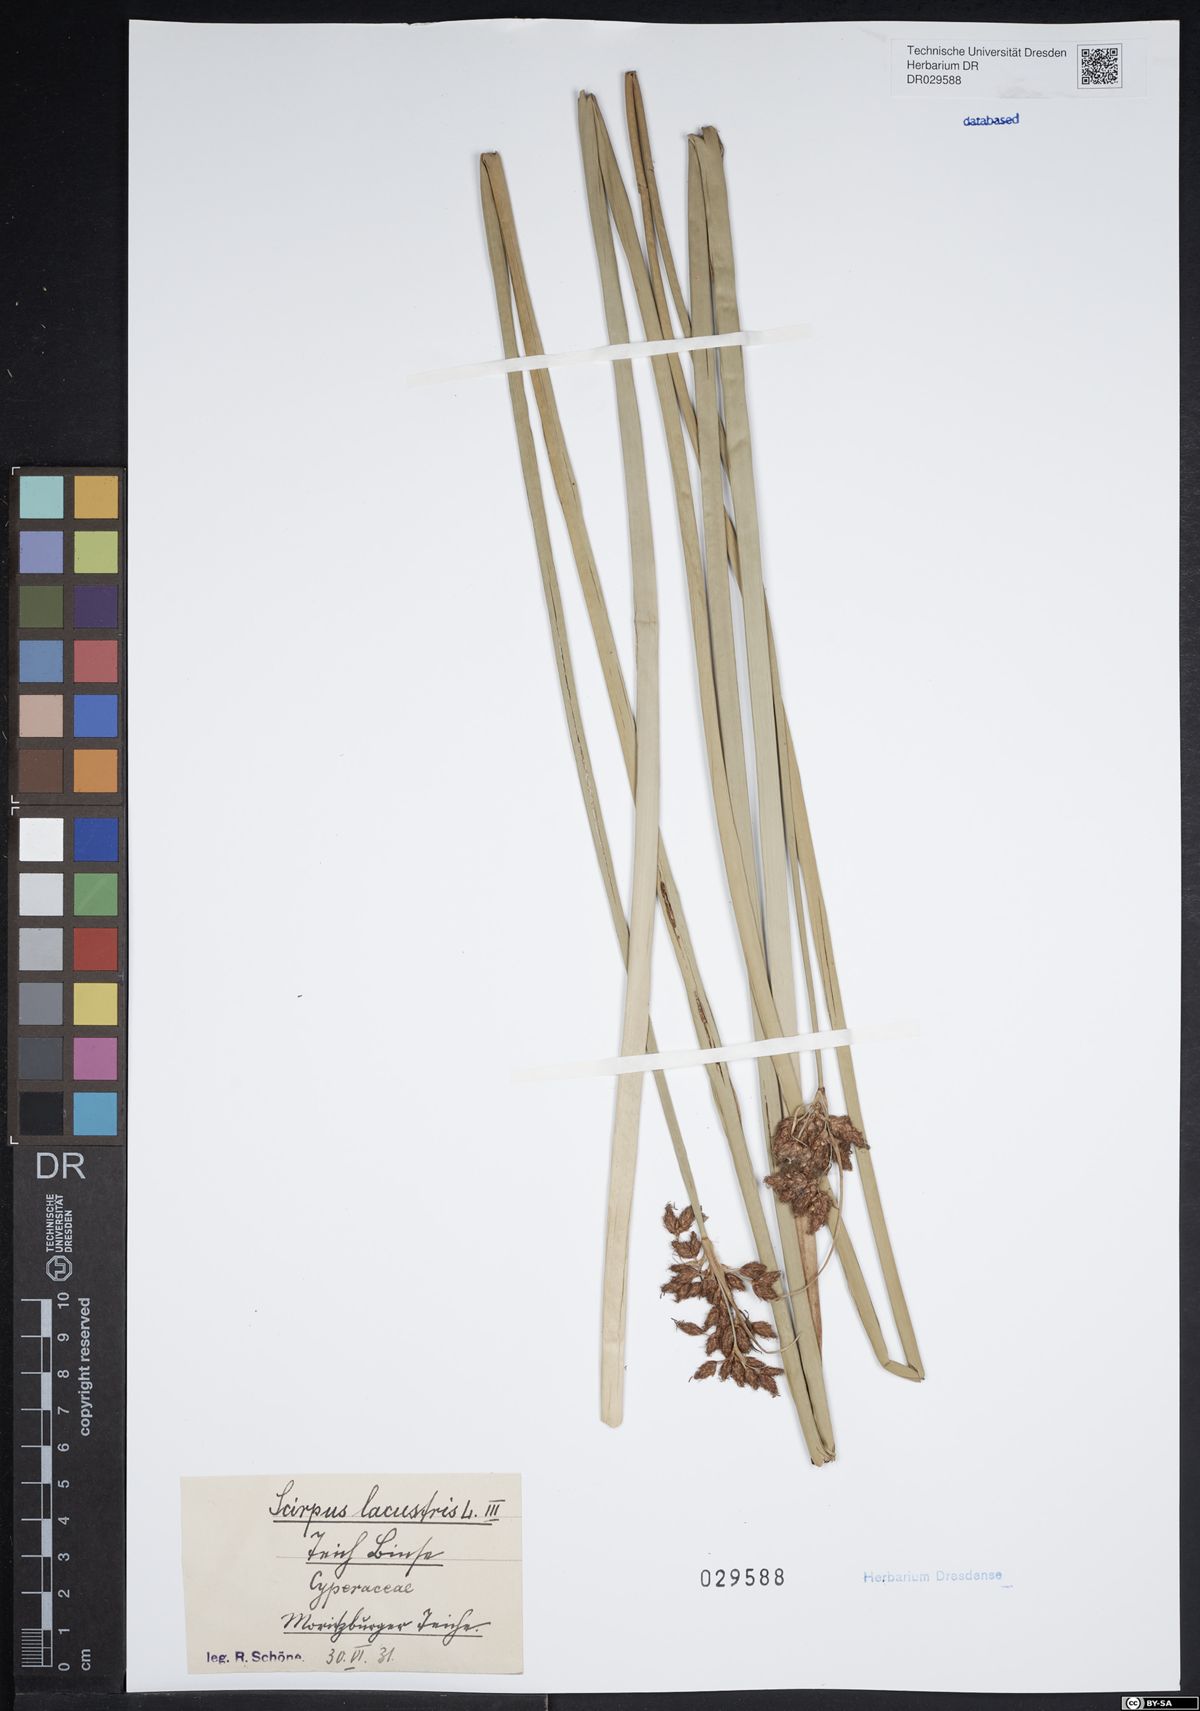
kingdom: Plantae
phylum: Tracheophyta
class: Liliopsida
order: Poales
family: Cyperaceae
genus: Schoenoplectus
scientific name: Schoenoplectus lacustris
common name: Common club-rush
